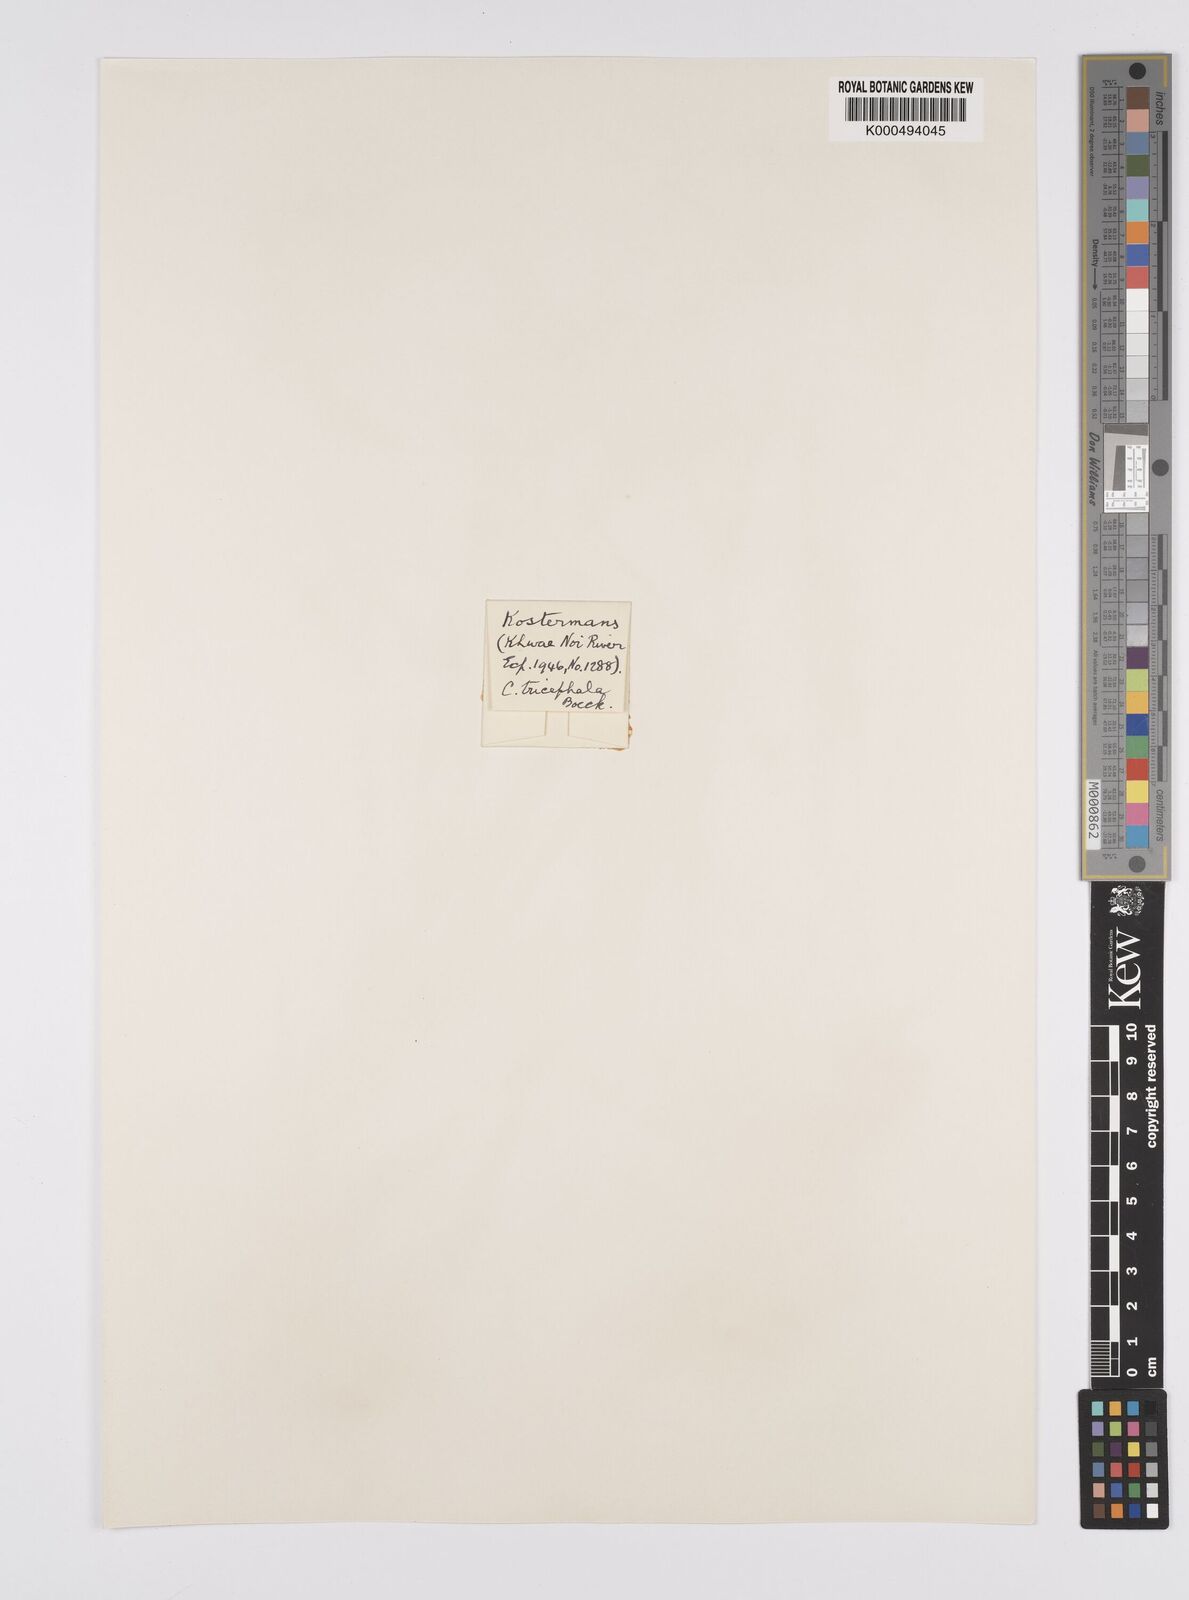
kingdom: Plantae
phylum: Tracheophyta
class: Liliopsida
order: Poales
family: Cyperaceae
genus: Carex
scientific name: Carex tricephala
